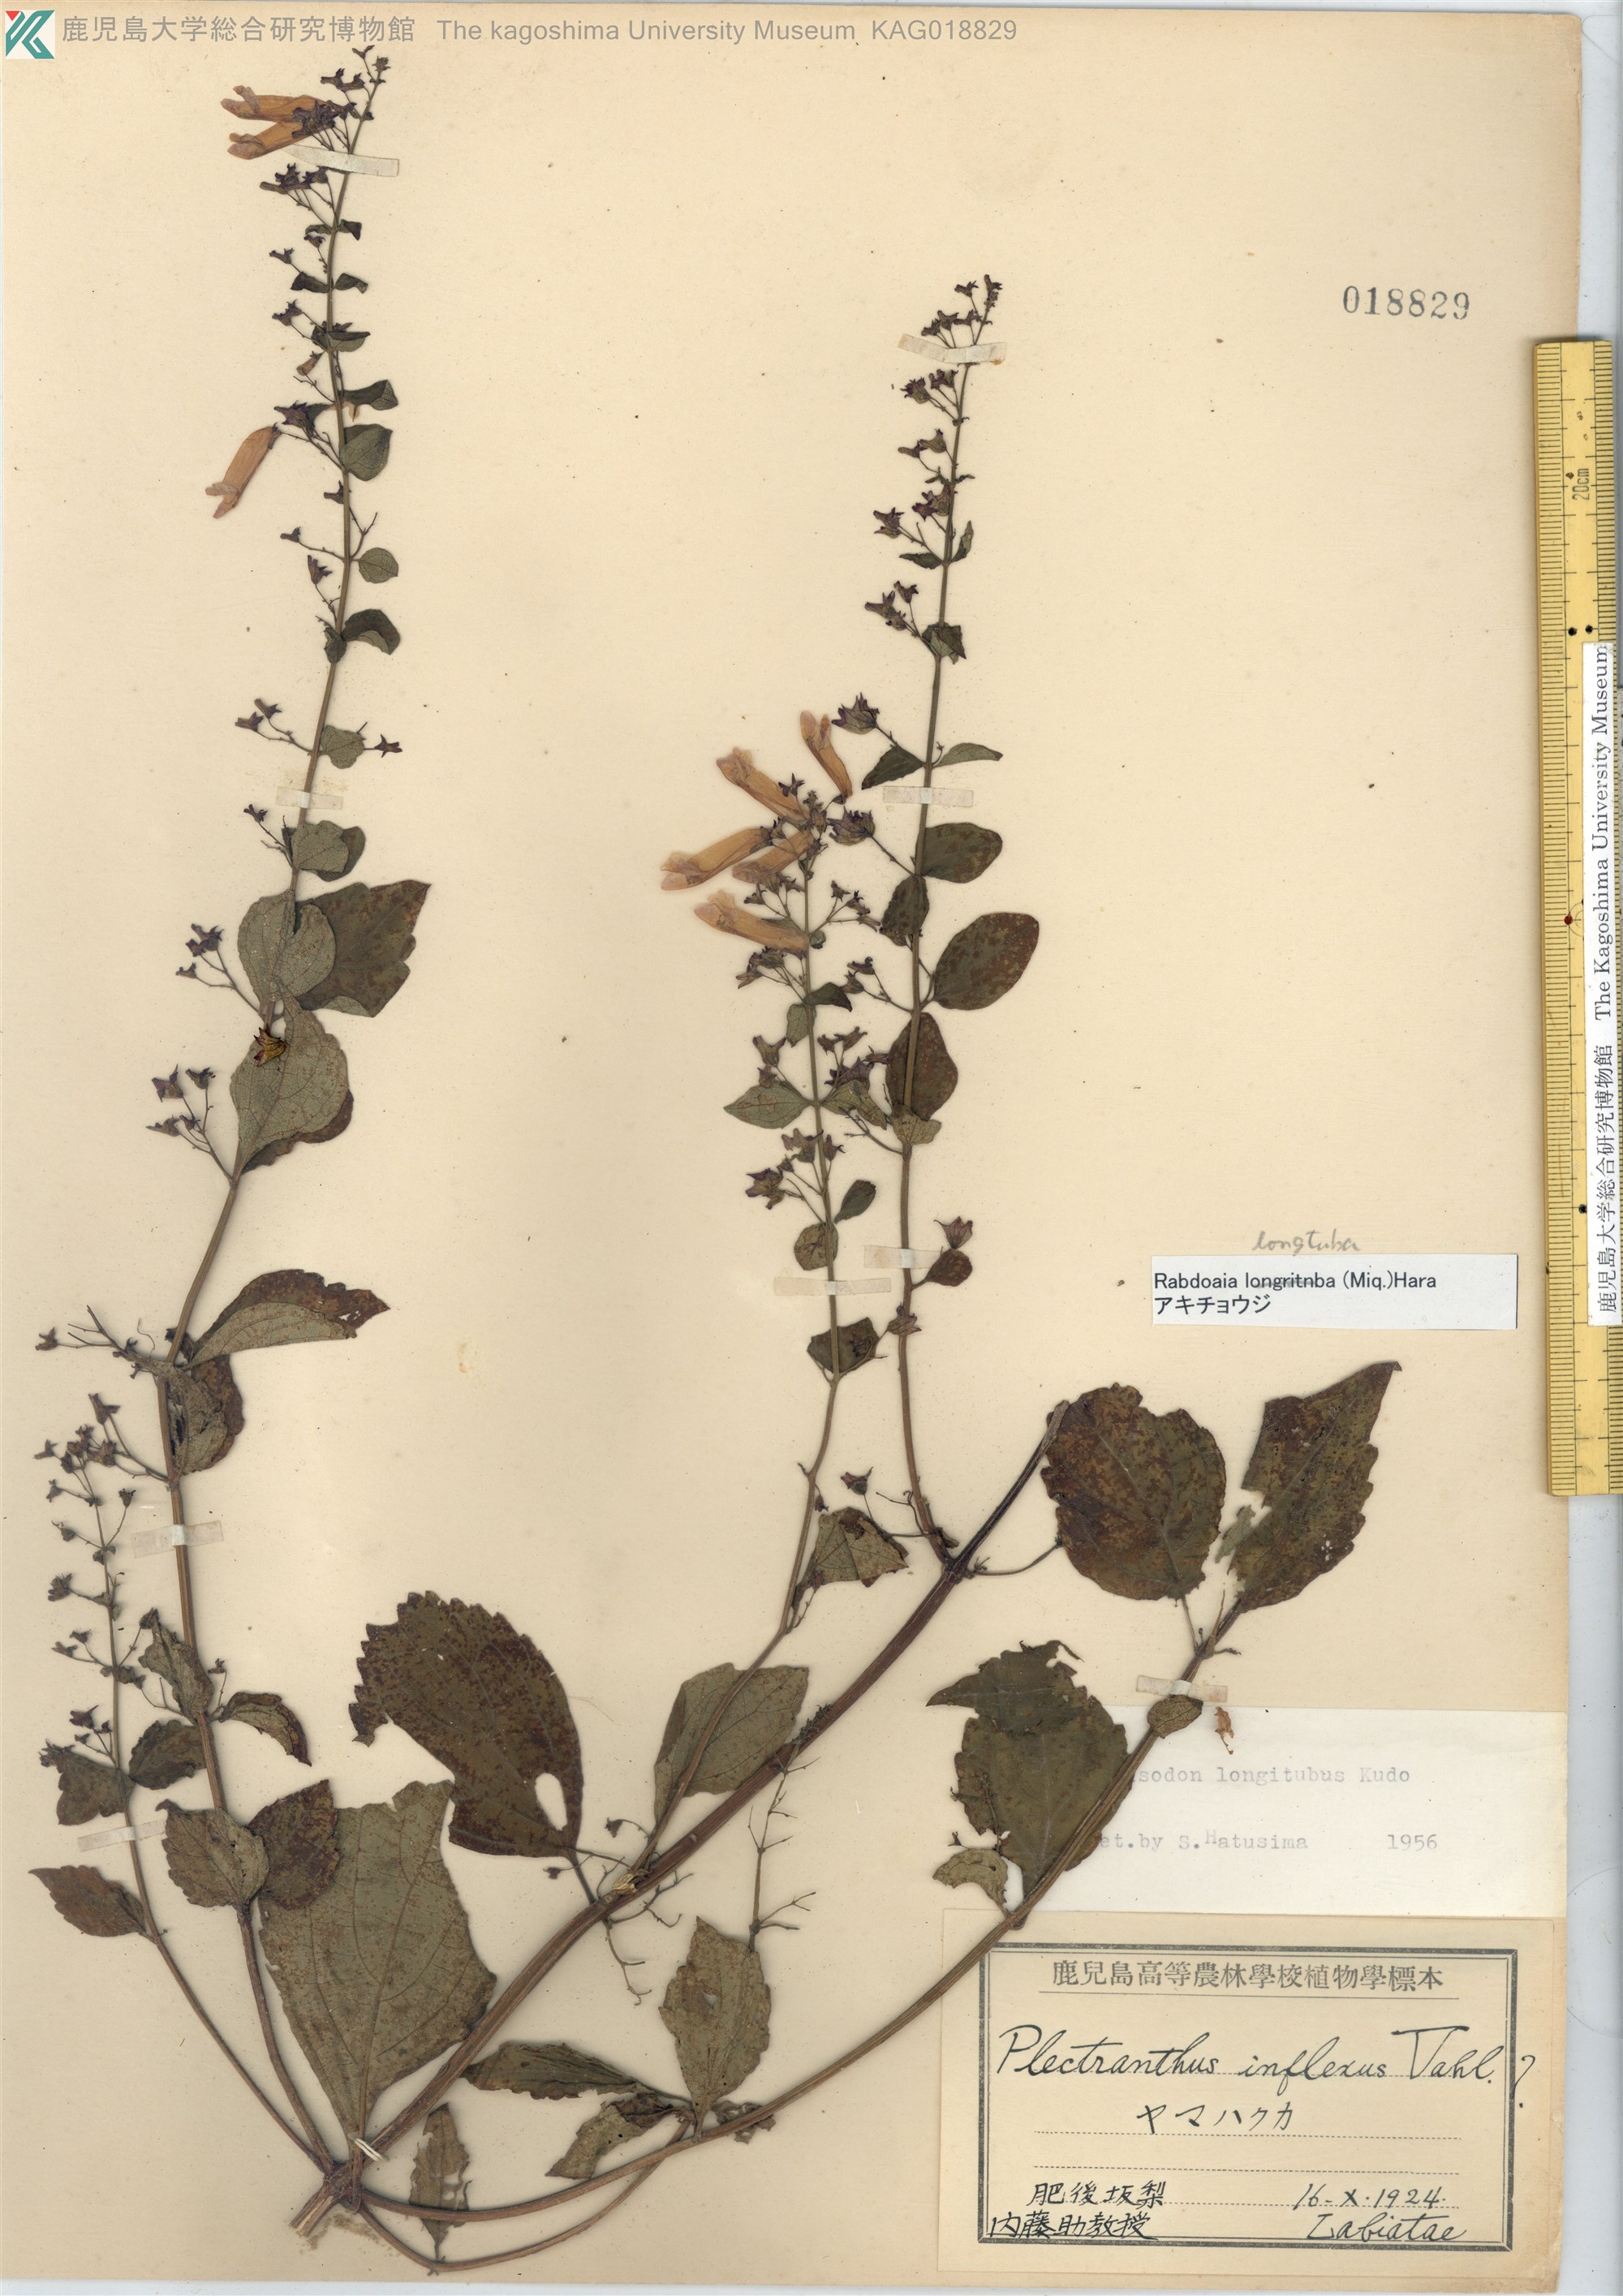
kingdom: Plantae
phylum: Tracheophyta
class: Magnoliopsida
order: Lamiales
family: Lamiaceae
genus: Isodon
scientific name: Isodon longitubus
